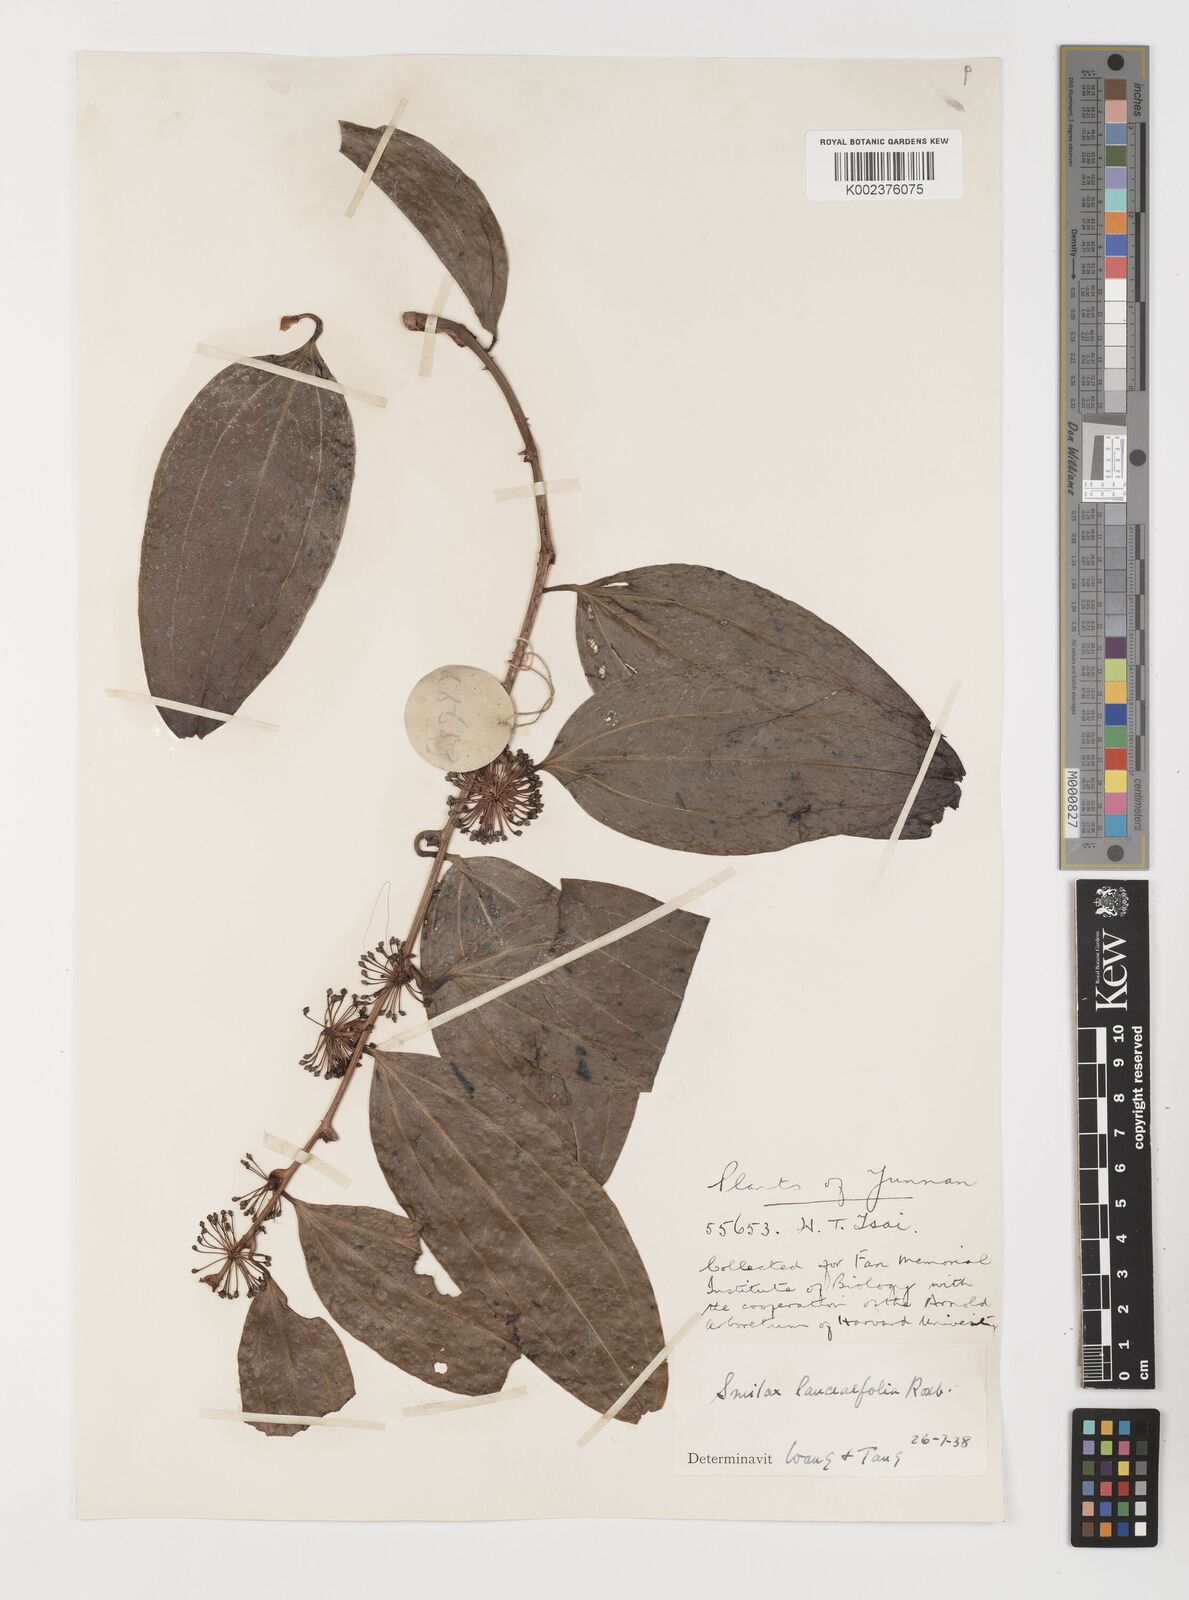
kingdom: Plantae
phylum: Tracheophyta
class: Liliopsida
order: Liliales
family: Smilacaceae
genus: Smilax
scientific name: Smilax lanceifolia
